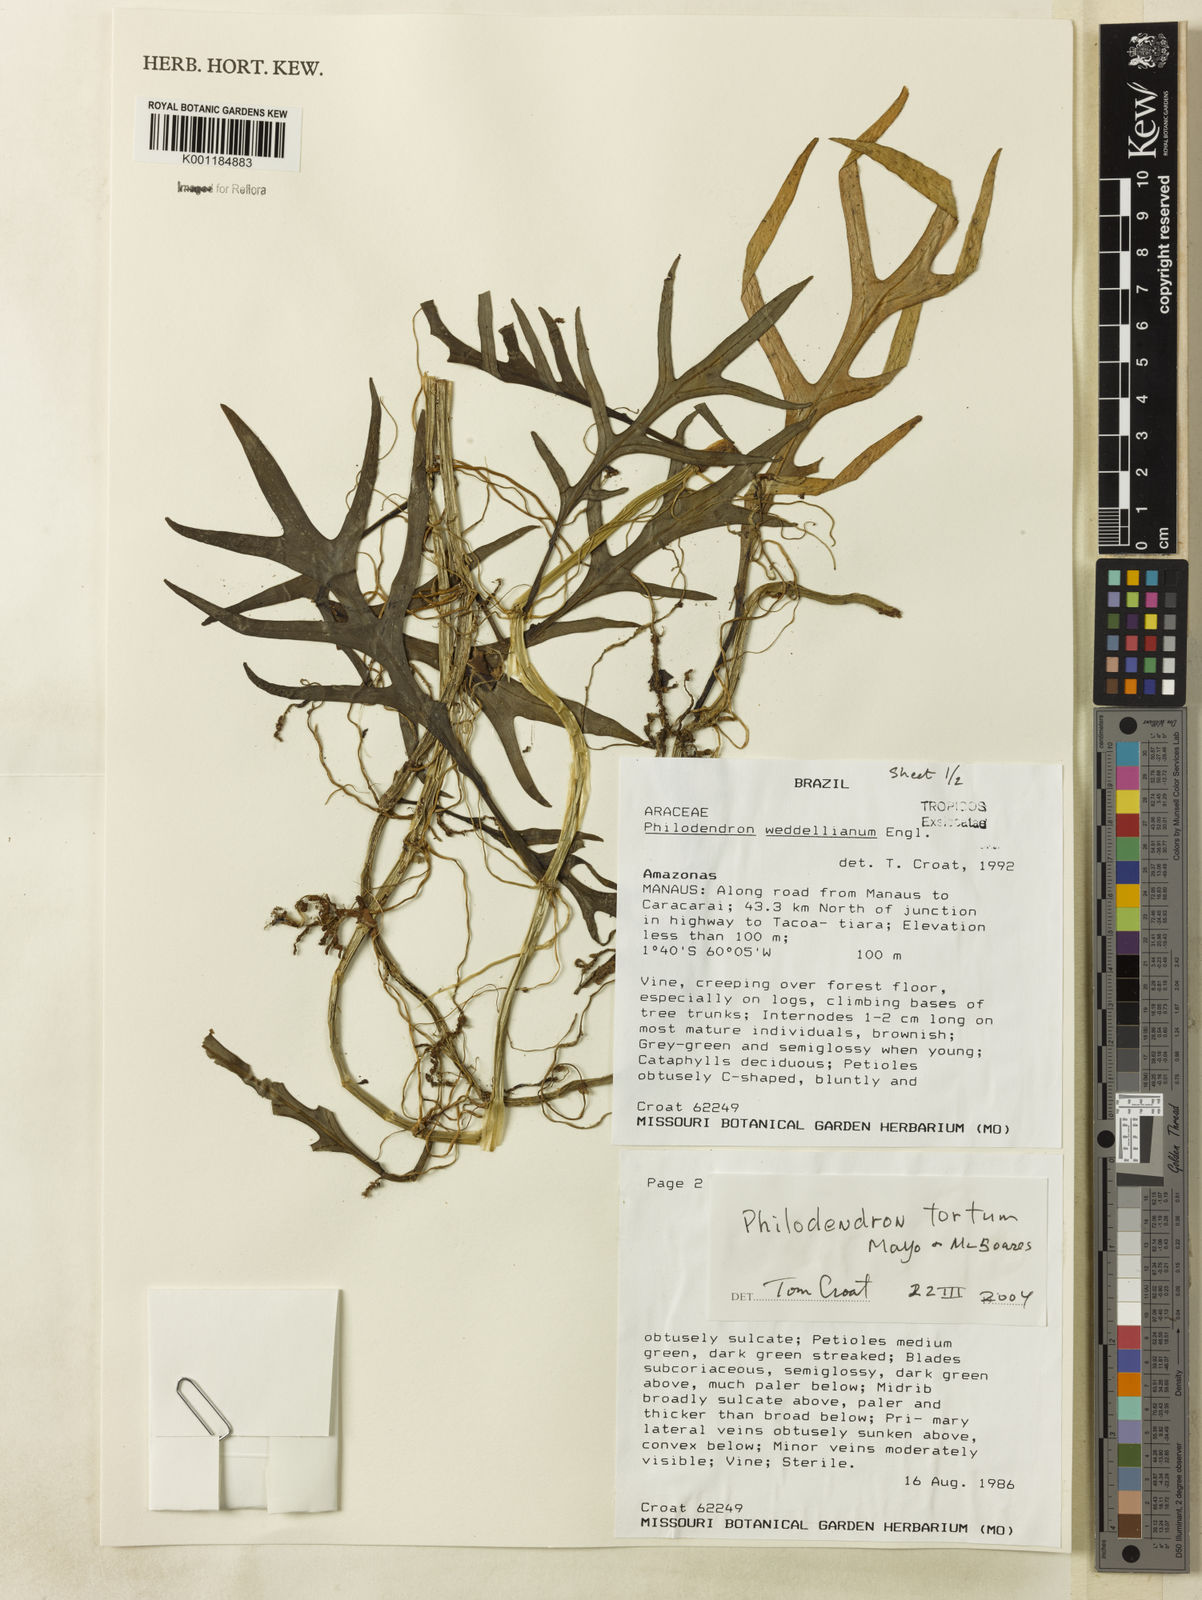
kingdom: Plantae
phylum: Tracheophyta
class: Liliopsida
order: Alismatales
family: Araceae
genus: Philodendron
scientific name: Philodendron tortum
